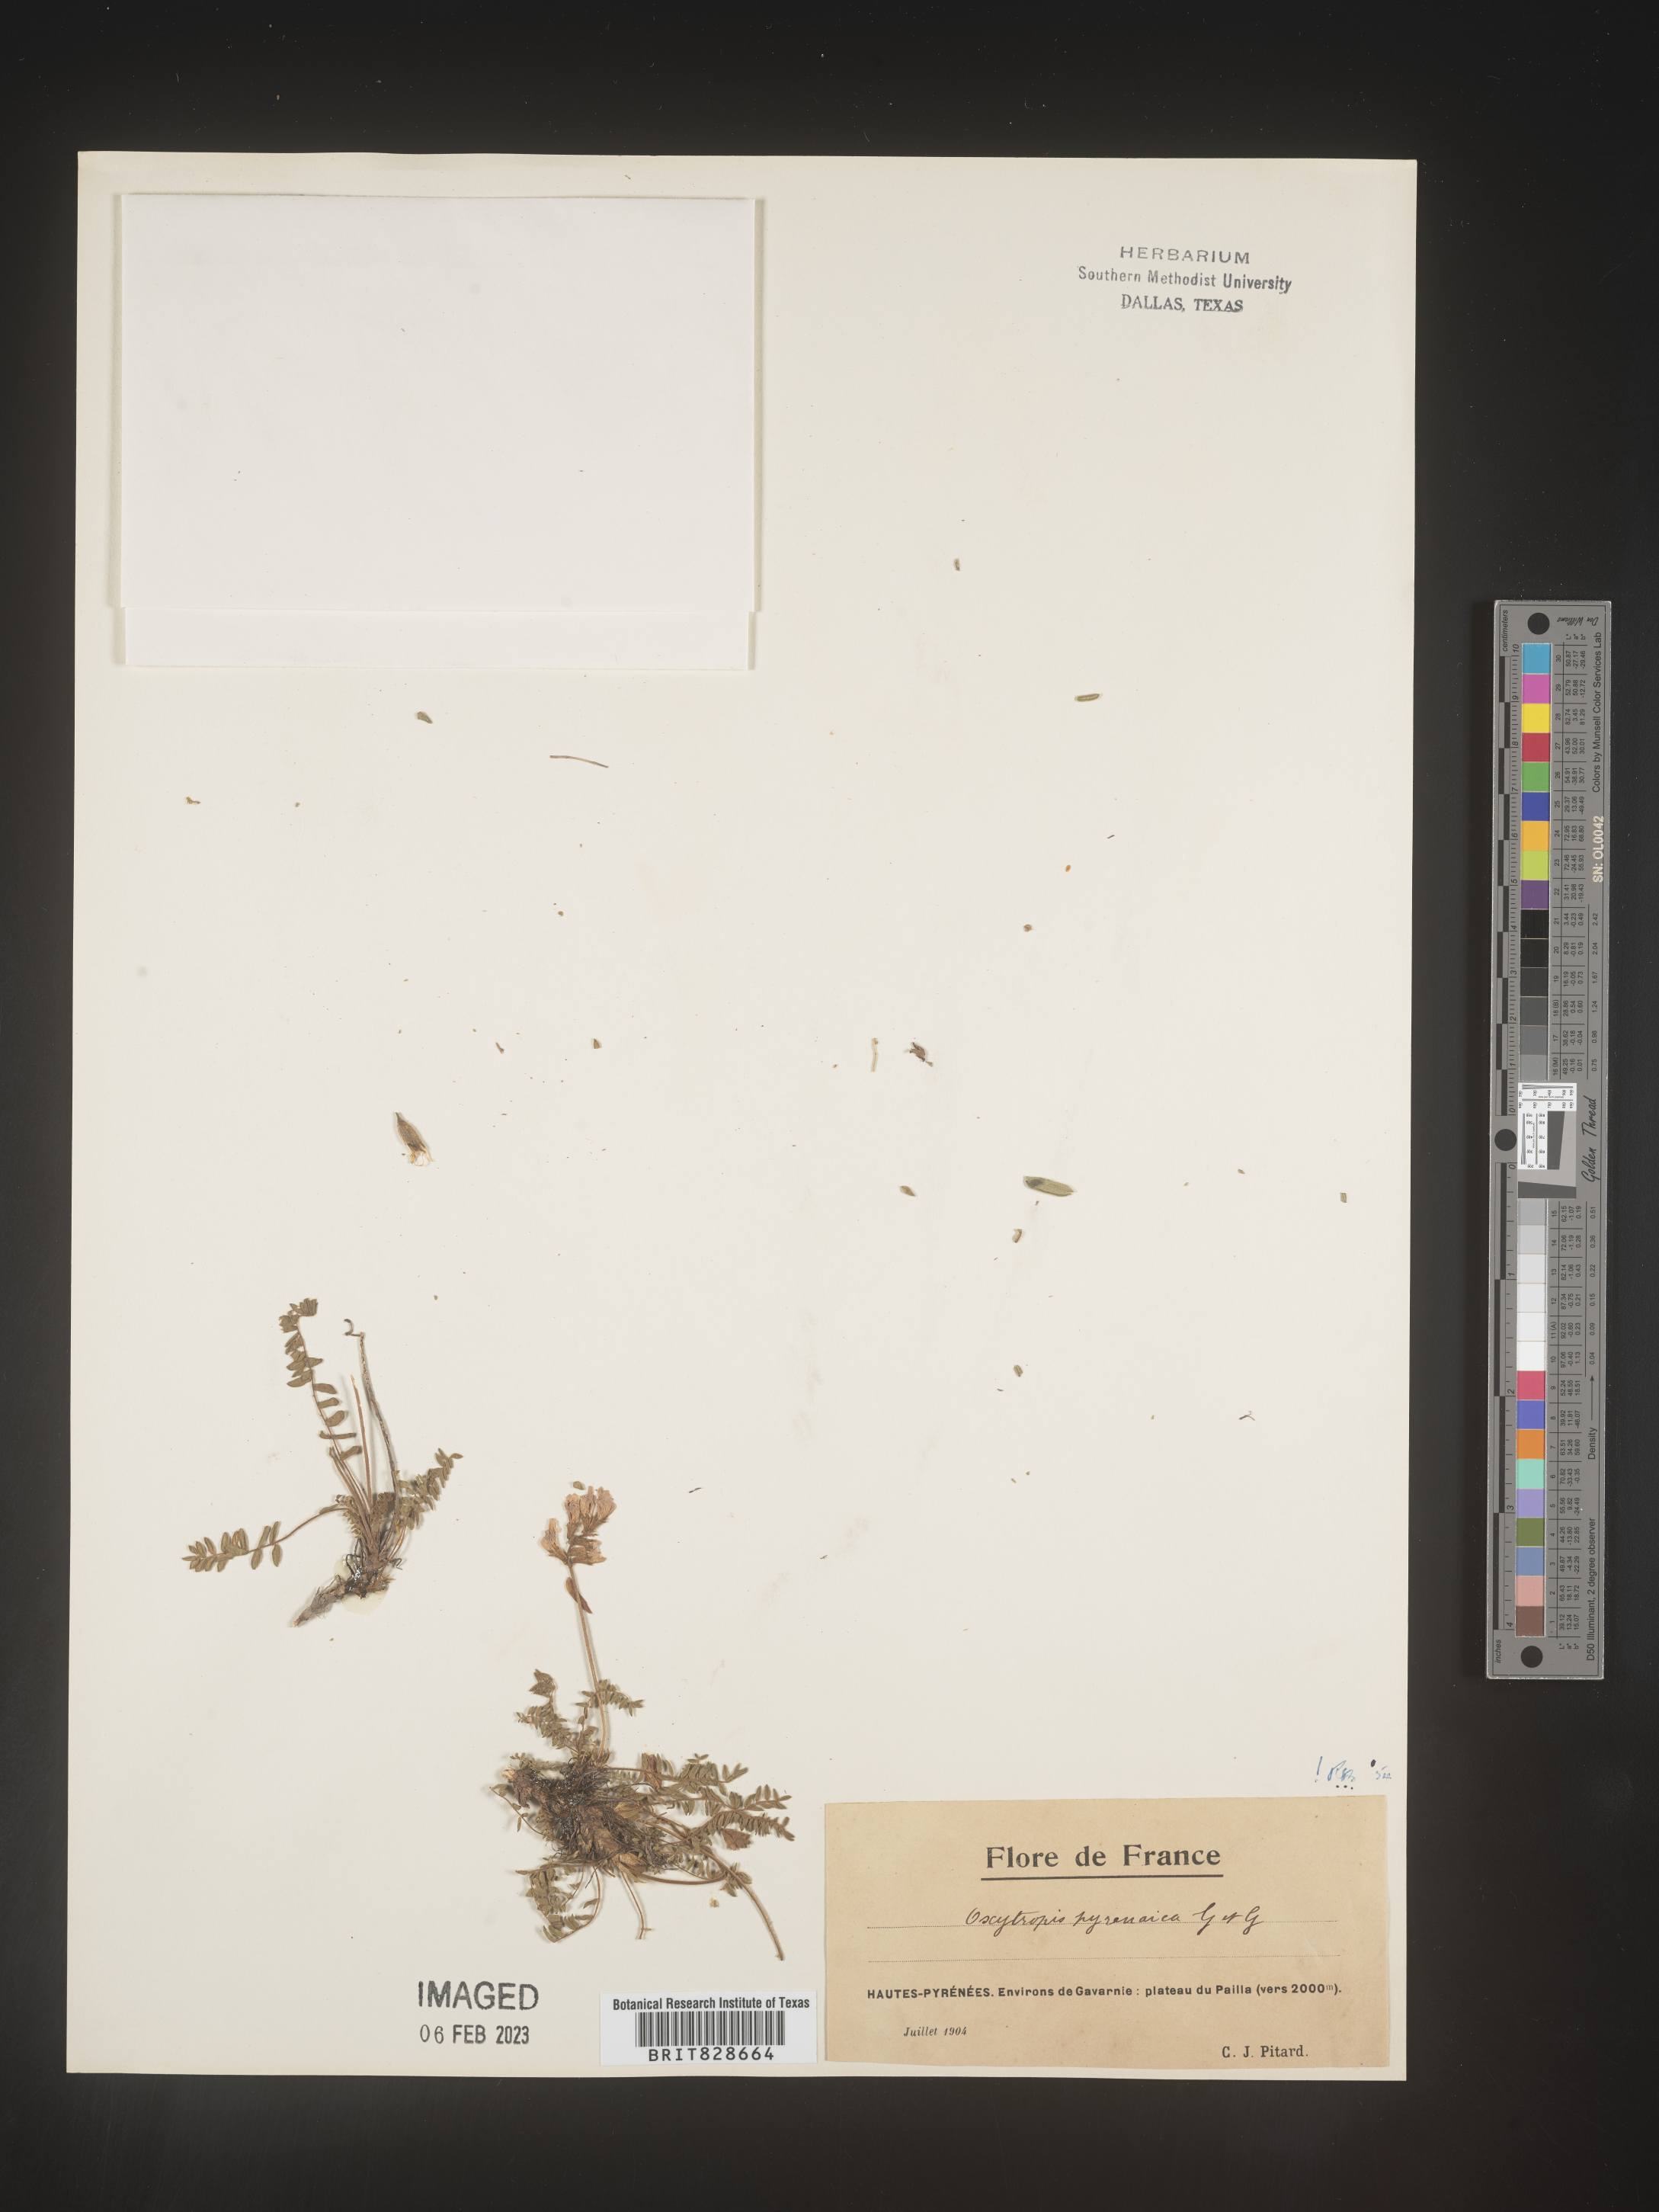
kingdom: Plantae
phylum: Tracheophyta
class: Magnoliopsida
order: Fabales
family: Fabaceae
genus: Oxytropis
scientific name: Oxytropis
